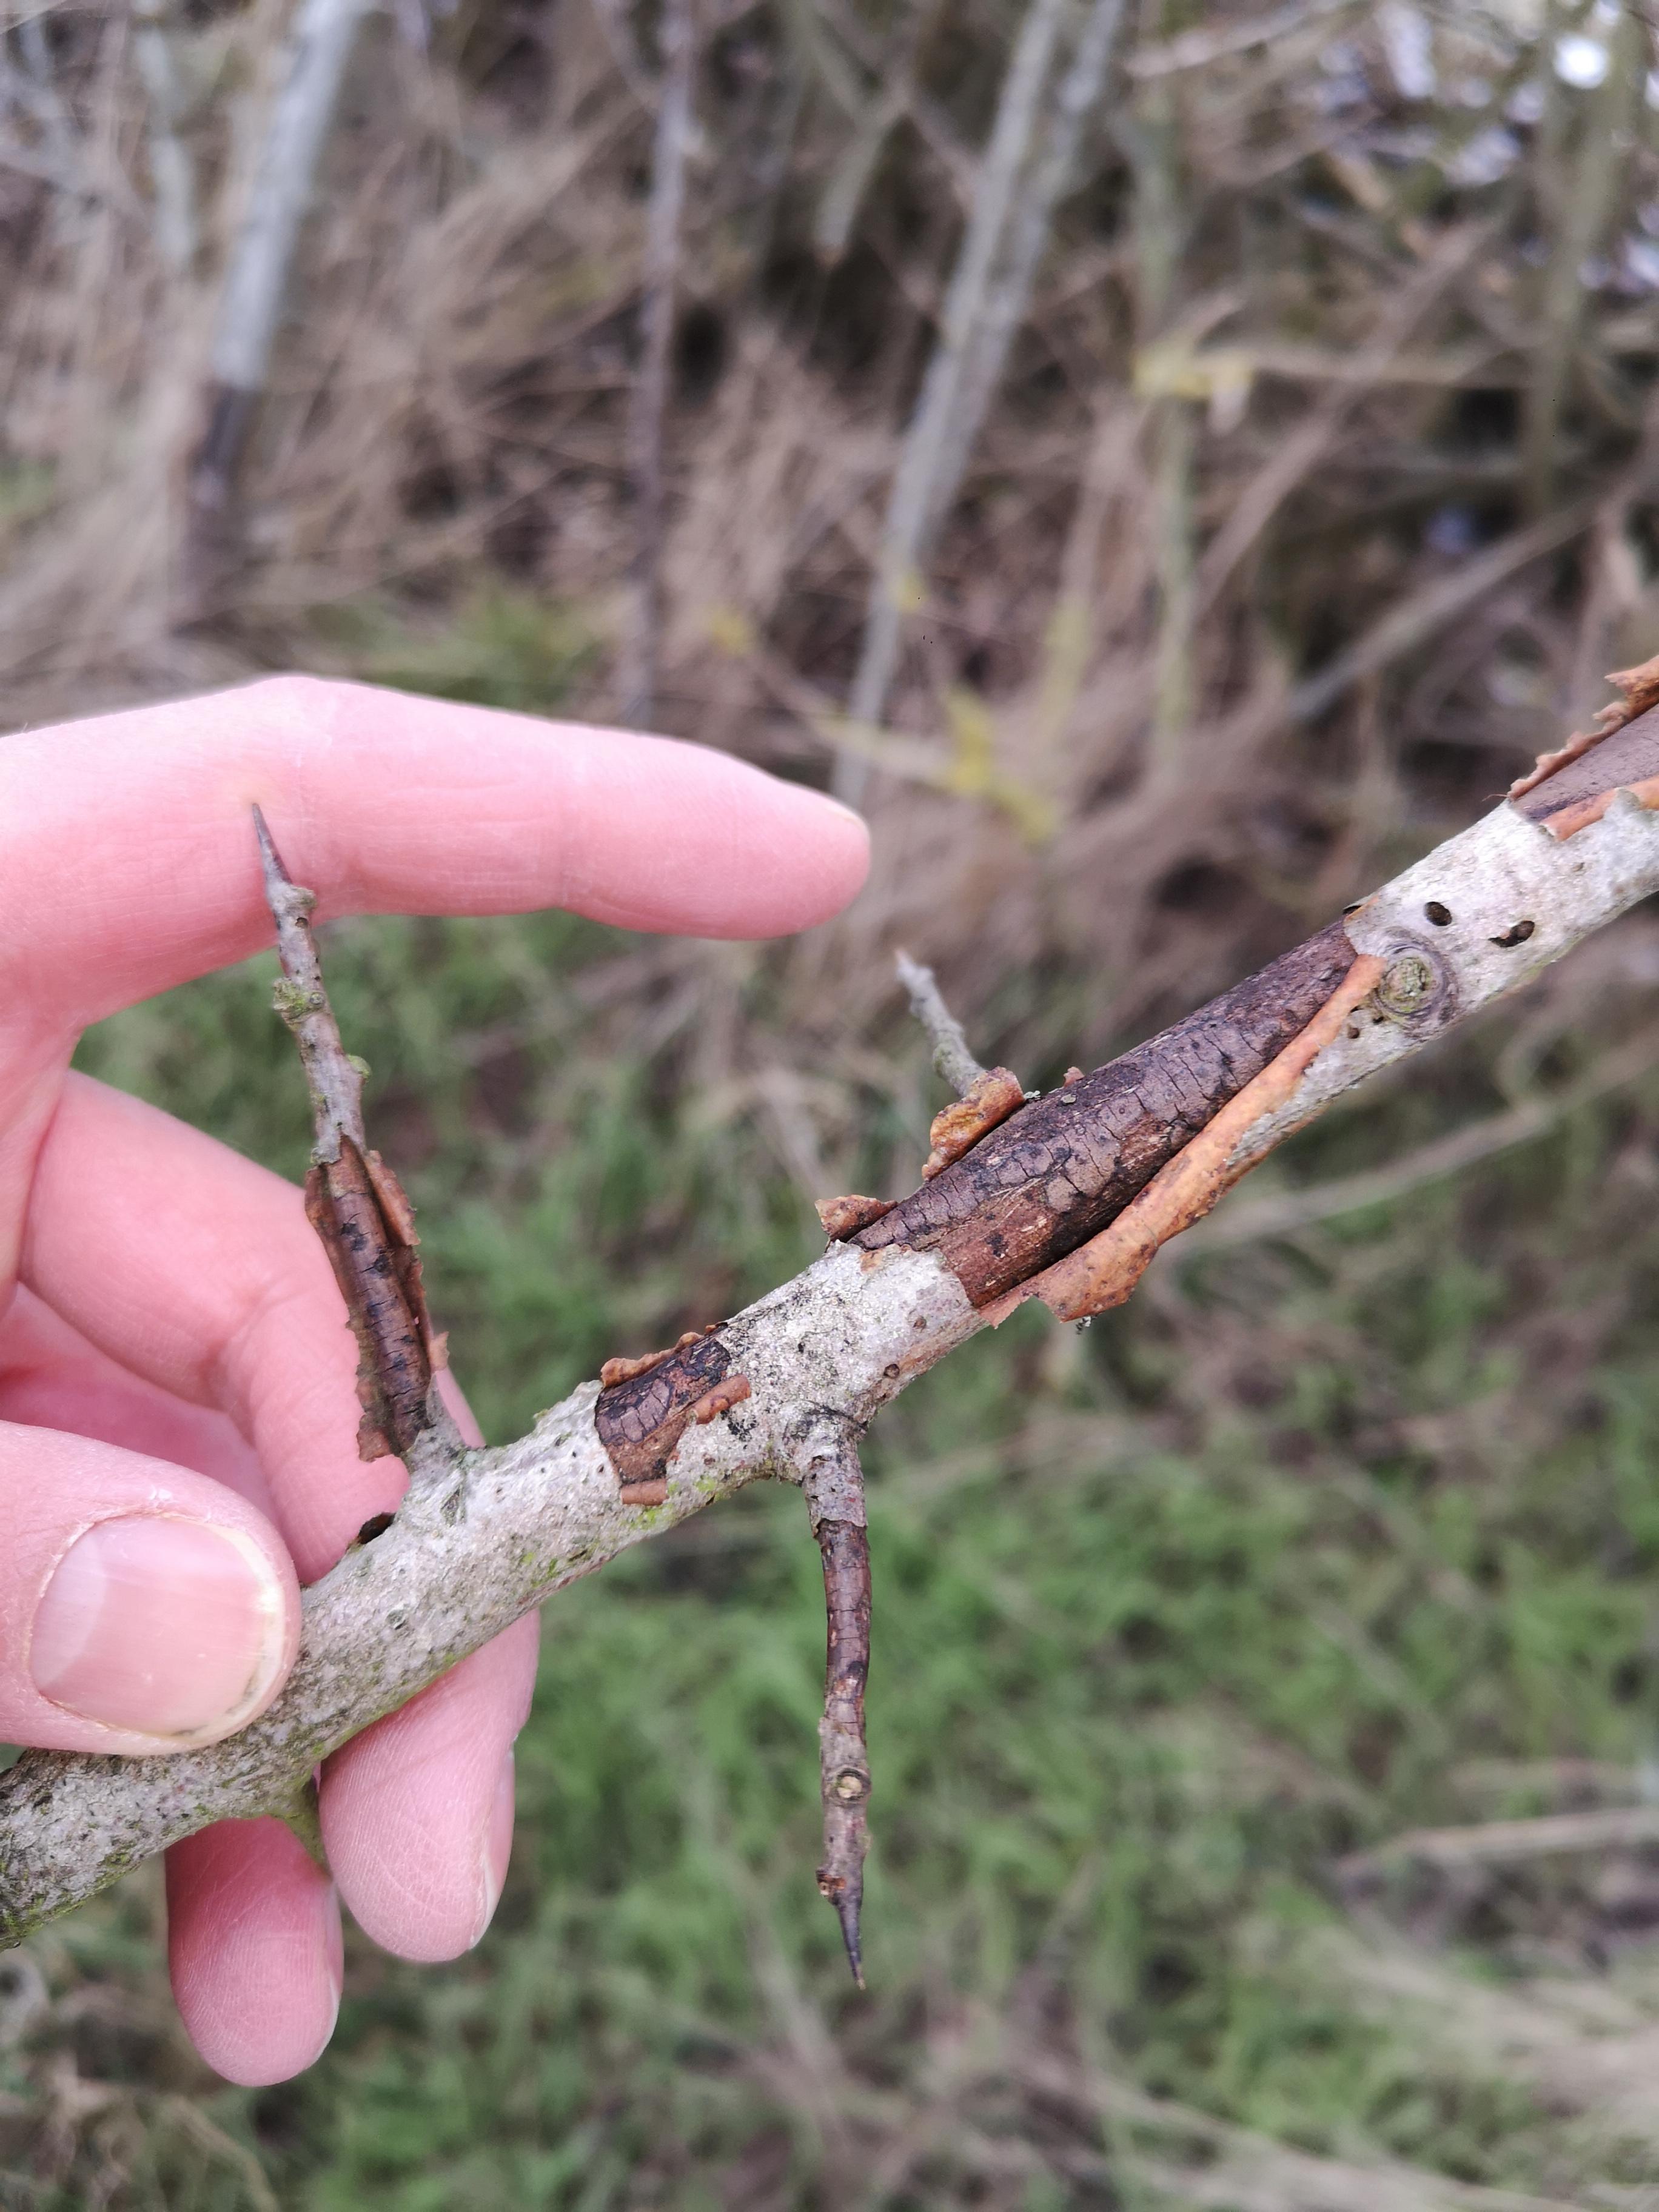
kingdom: Fungi
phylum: Ascomycota
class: Sordariomycetes
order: Xylariales
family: Diatrypaceae
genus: Diatrype
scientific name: Diatrype
